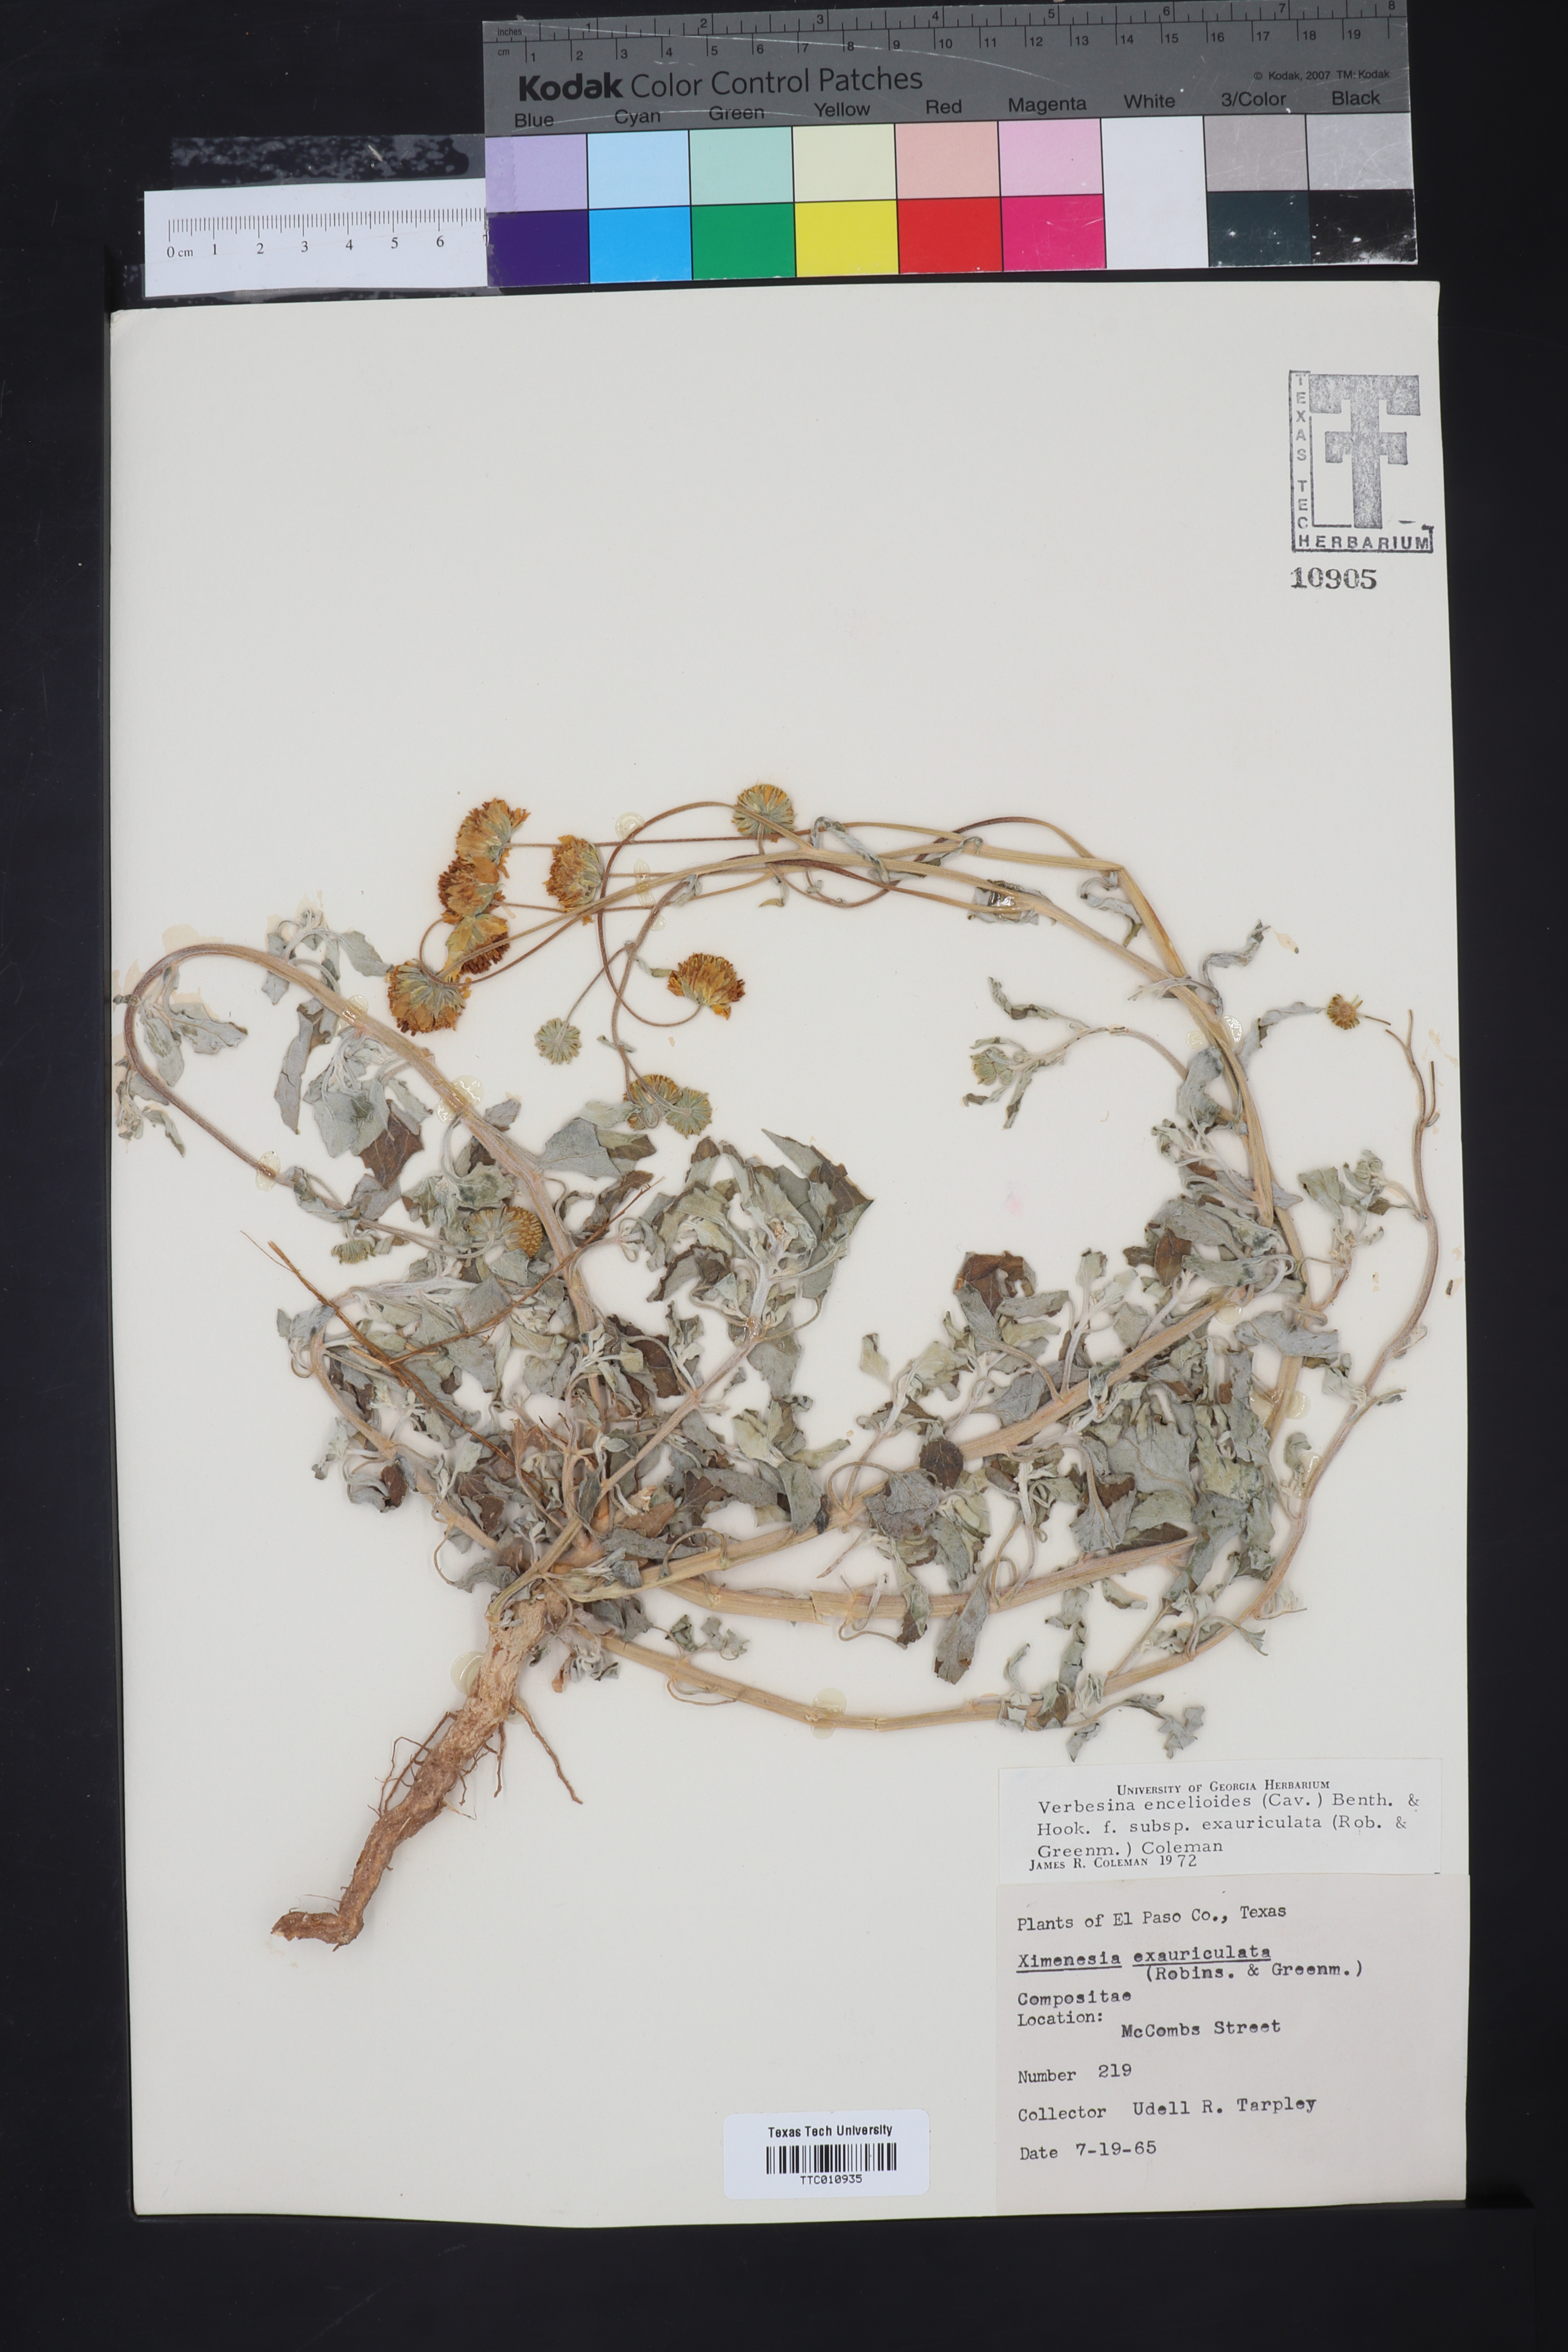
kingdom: Plantae
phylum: Tracheophyta
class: Magnoliopsida
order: Asterales
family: Asteraceae
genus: Verbesina
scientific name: Verbesina encelioides
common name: Golden crownbeard
